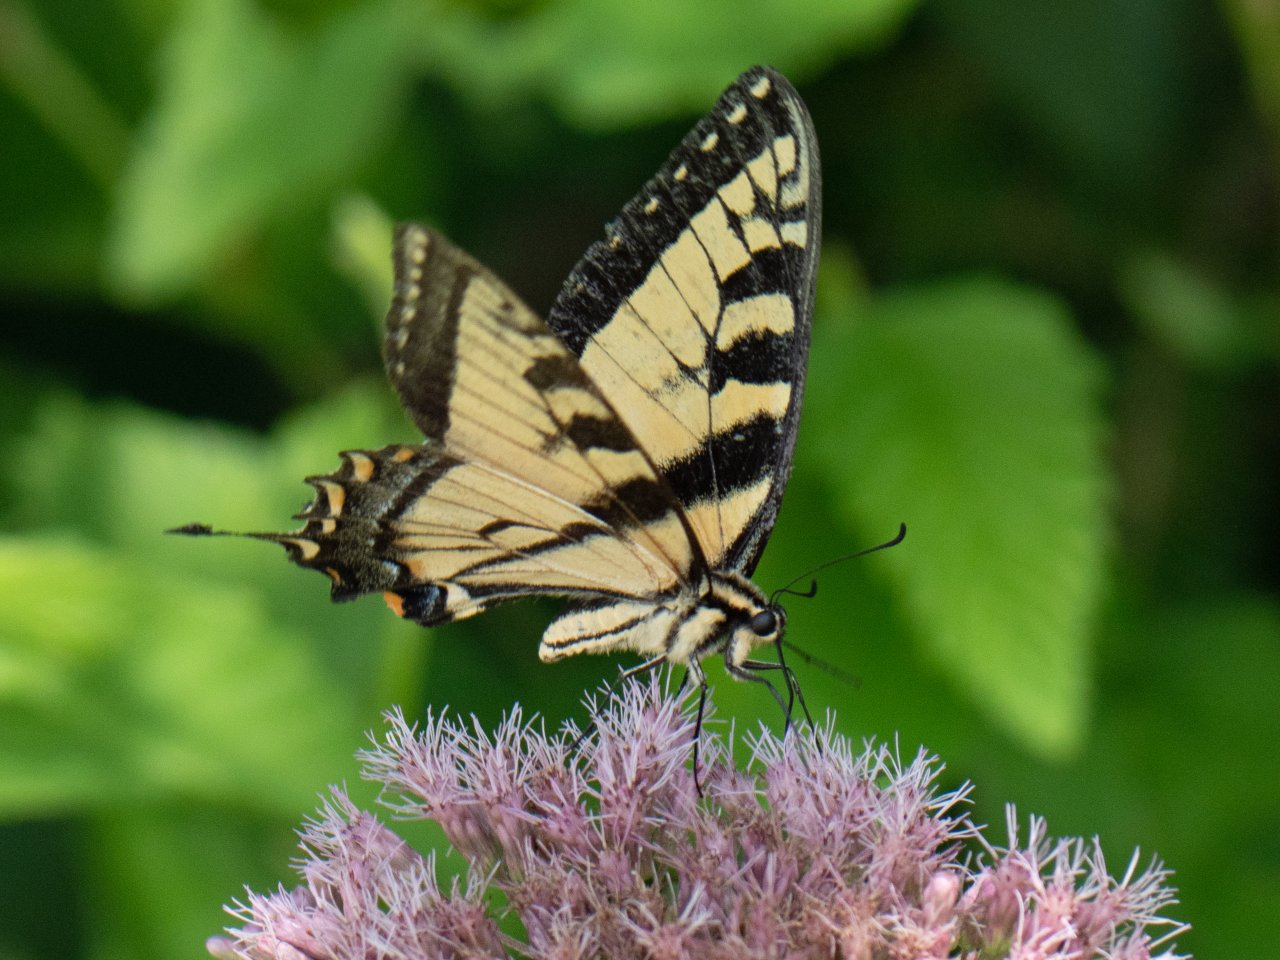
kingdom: Animalia
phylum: Arthropoda
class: Insecta
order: Lepidoptera
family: Papilionidae
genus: Pterourus
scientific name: Pterourus glaucus
